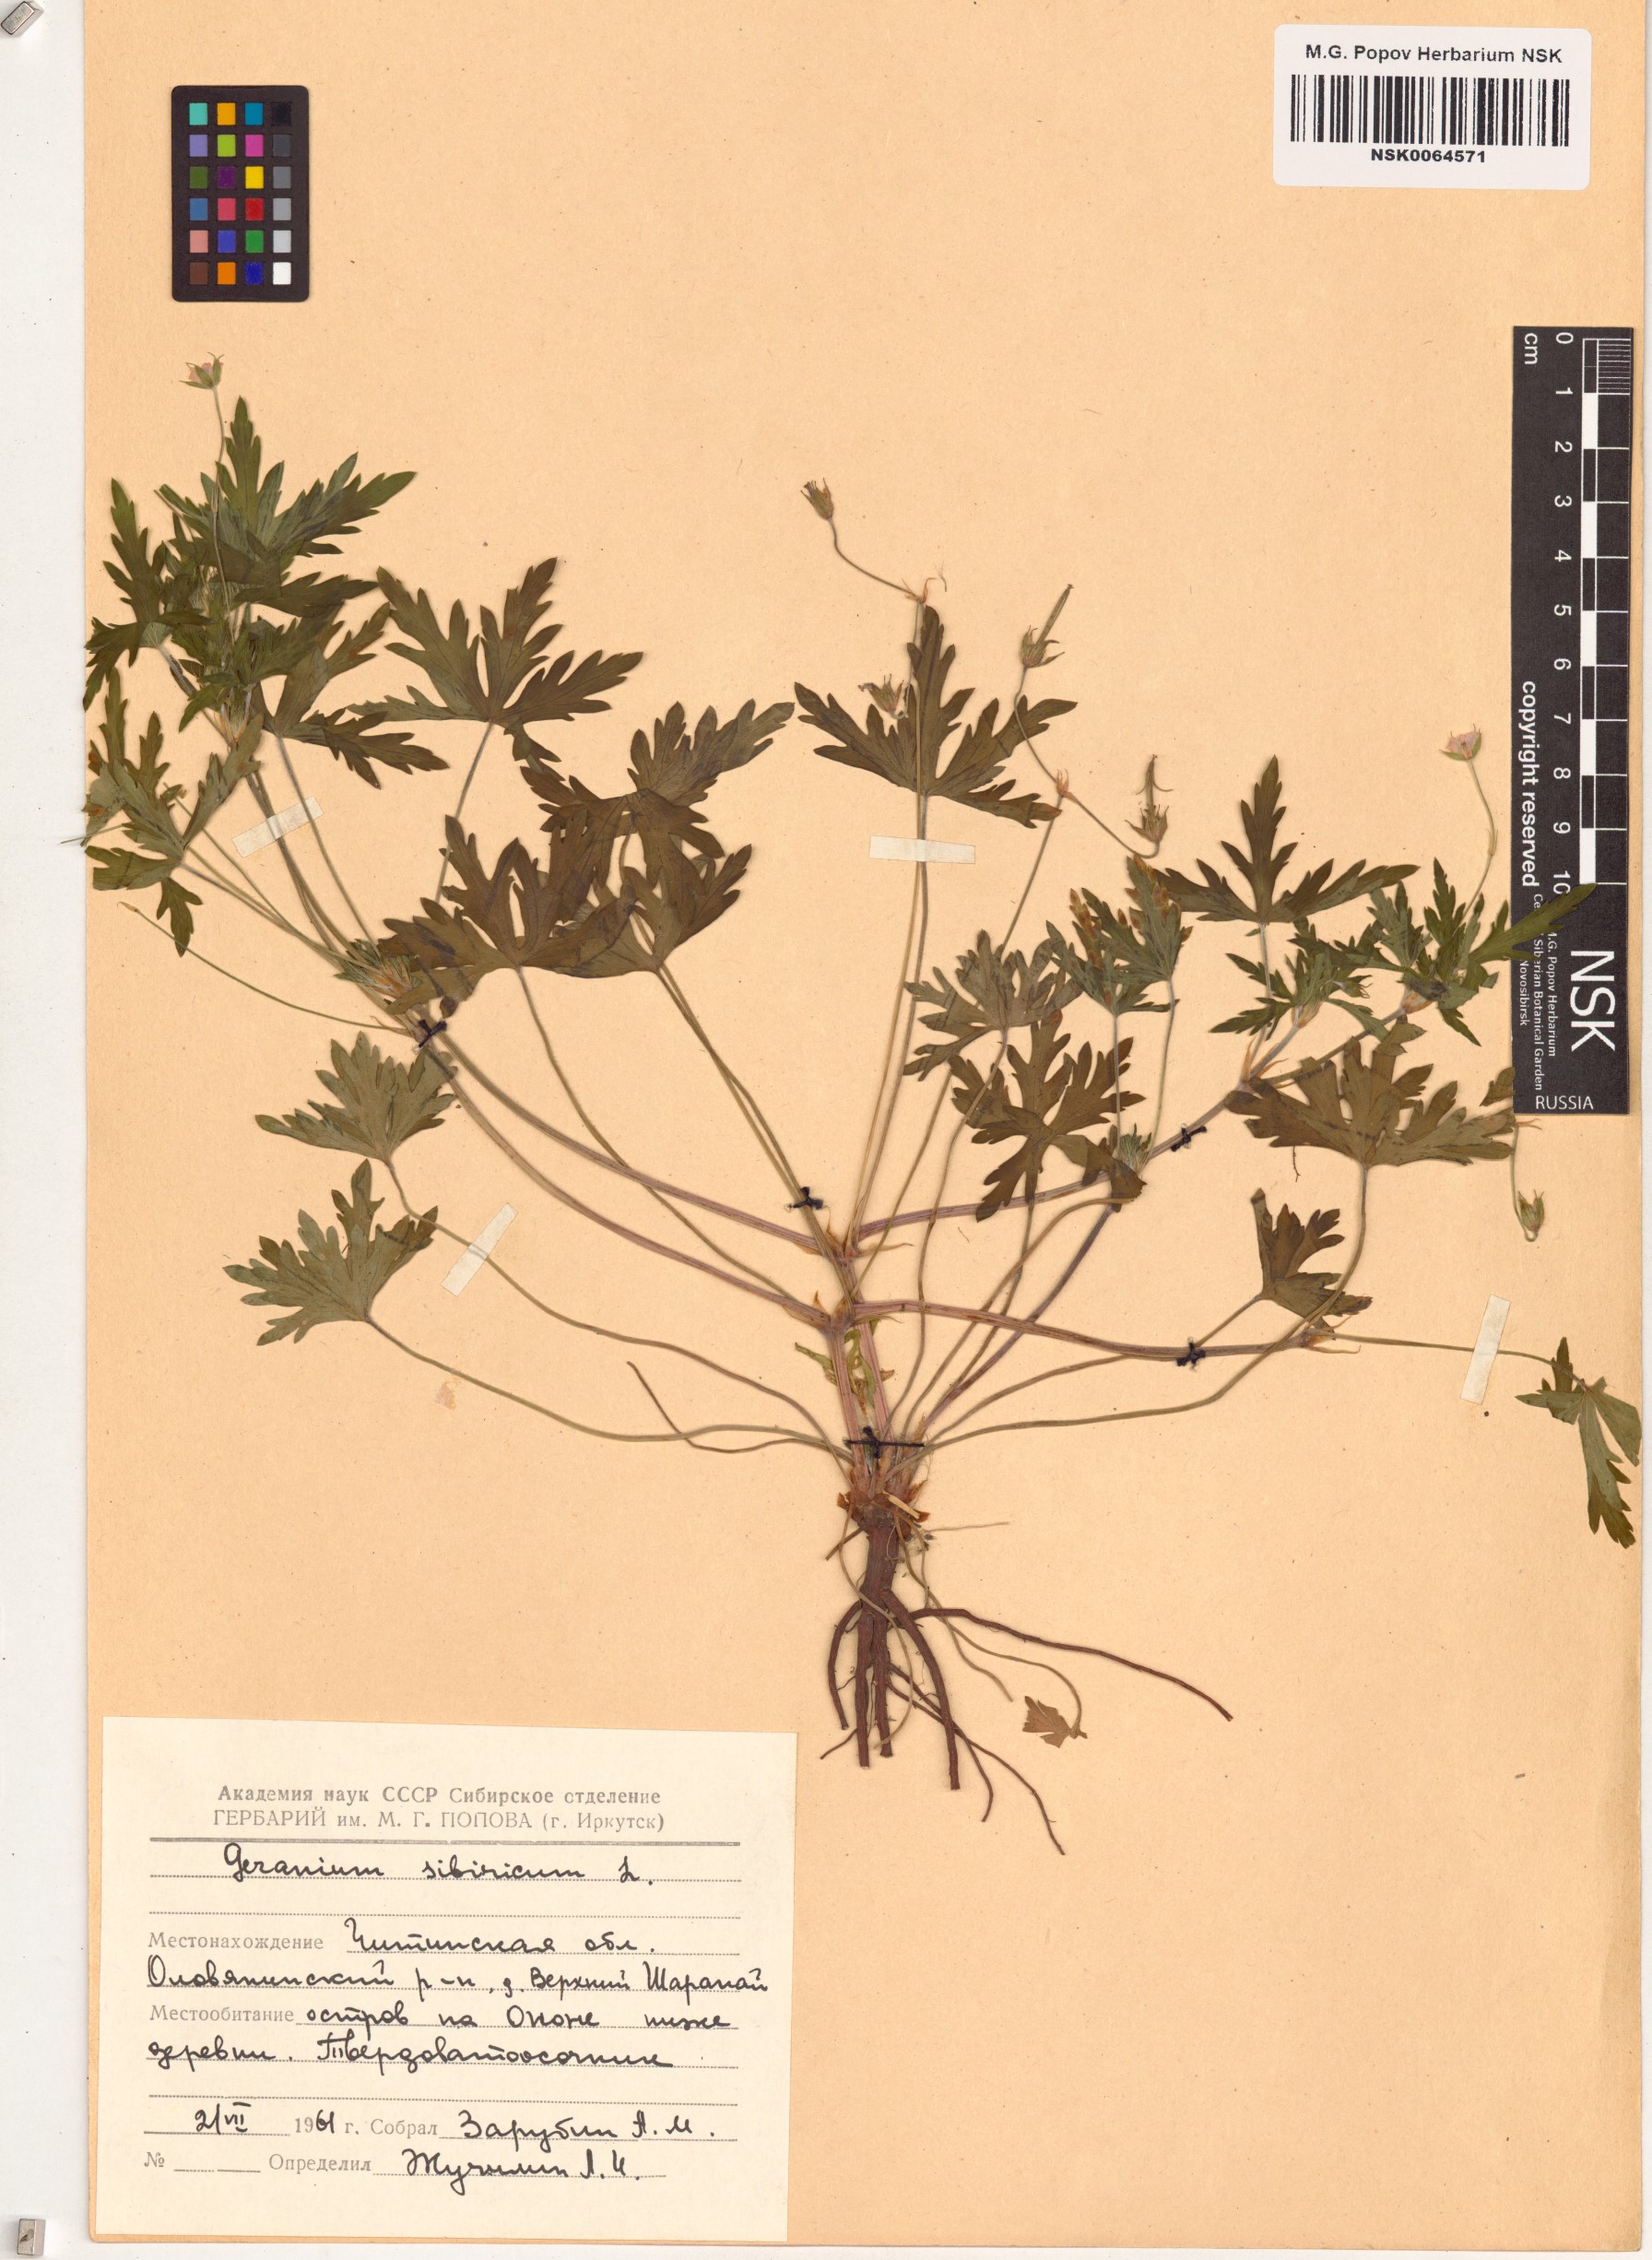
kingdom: Plantae
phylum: Tracheophyta
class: Magnoliopsida
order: Geraniales
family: Geraniaceae
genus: Geranium
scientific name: Geranium sibiricum
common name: Siberian crane's-bill
